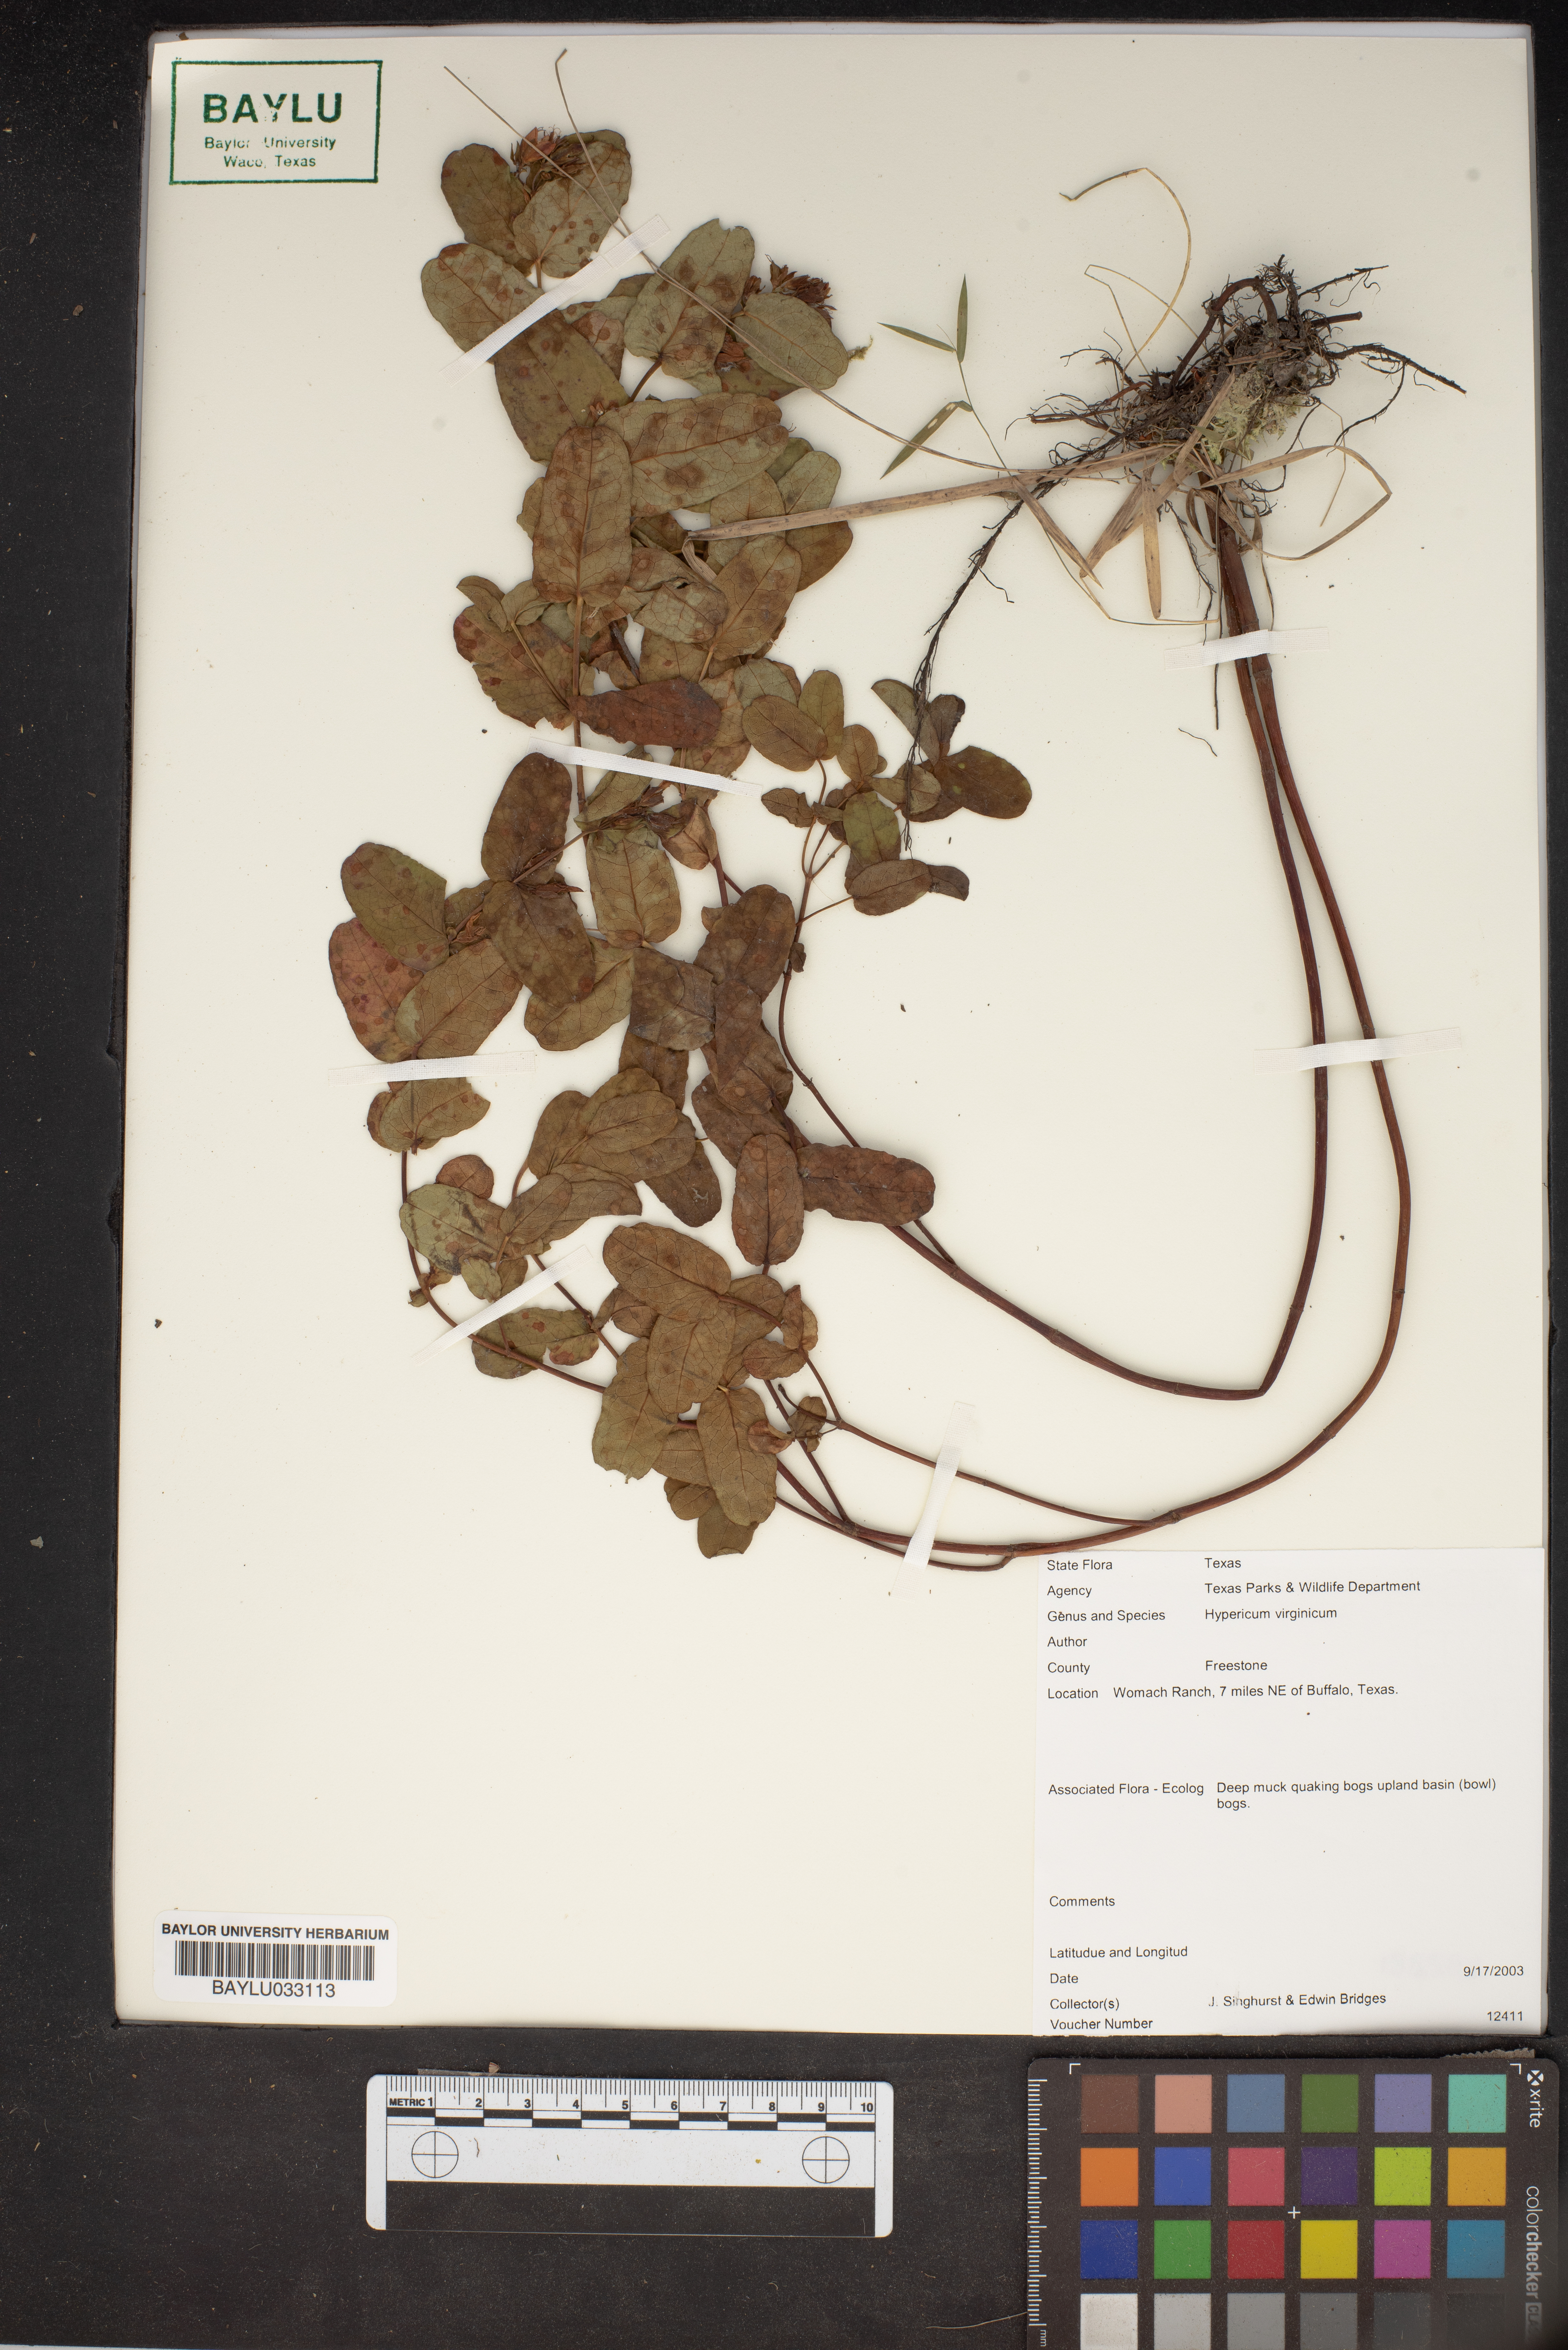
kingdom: Plantae
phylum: Tracheophyta
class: Magnoliopsida
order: Malpighiales
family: Hypericaceae
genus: Triadenum
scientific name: Triadenum virginicum
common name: Marsh st. john's-wort
